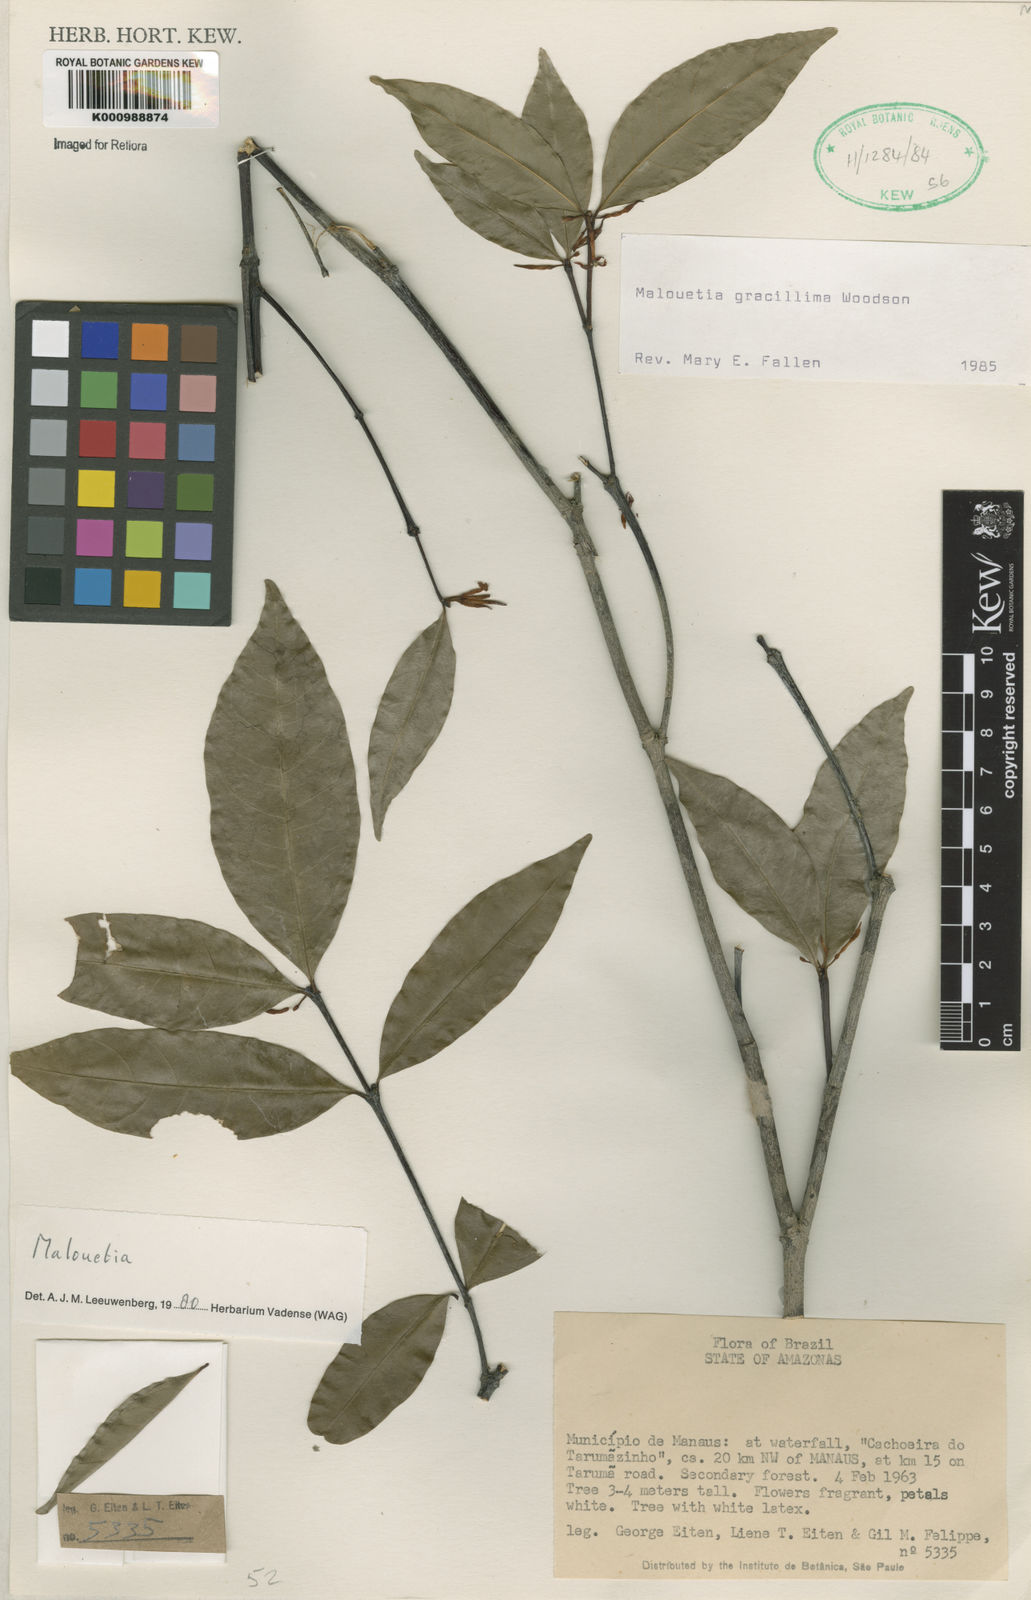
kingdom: Plantae
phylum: Tracheophyta
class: Magnoliopsida
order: Gentianales
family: Apocynaceae
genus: Malouetia
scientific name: Malouetia gracillima
